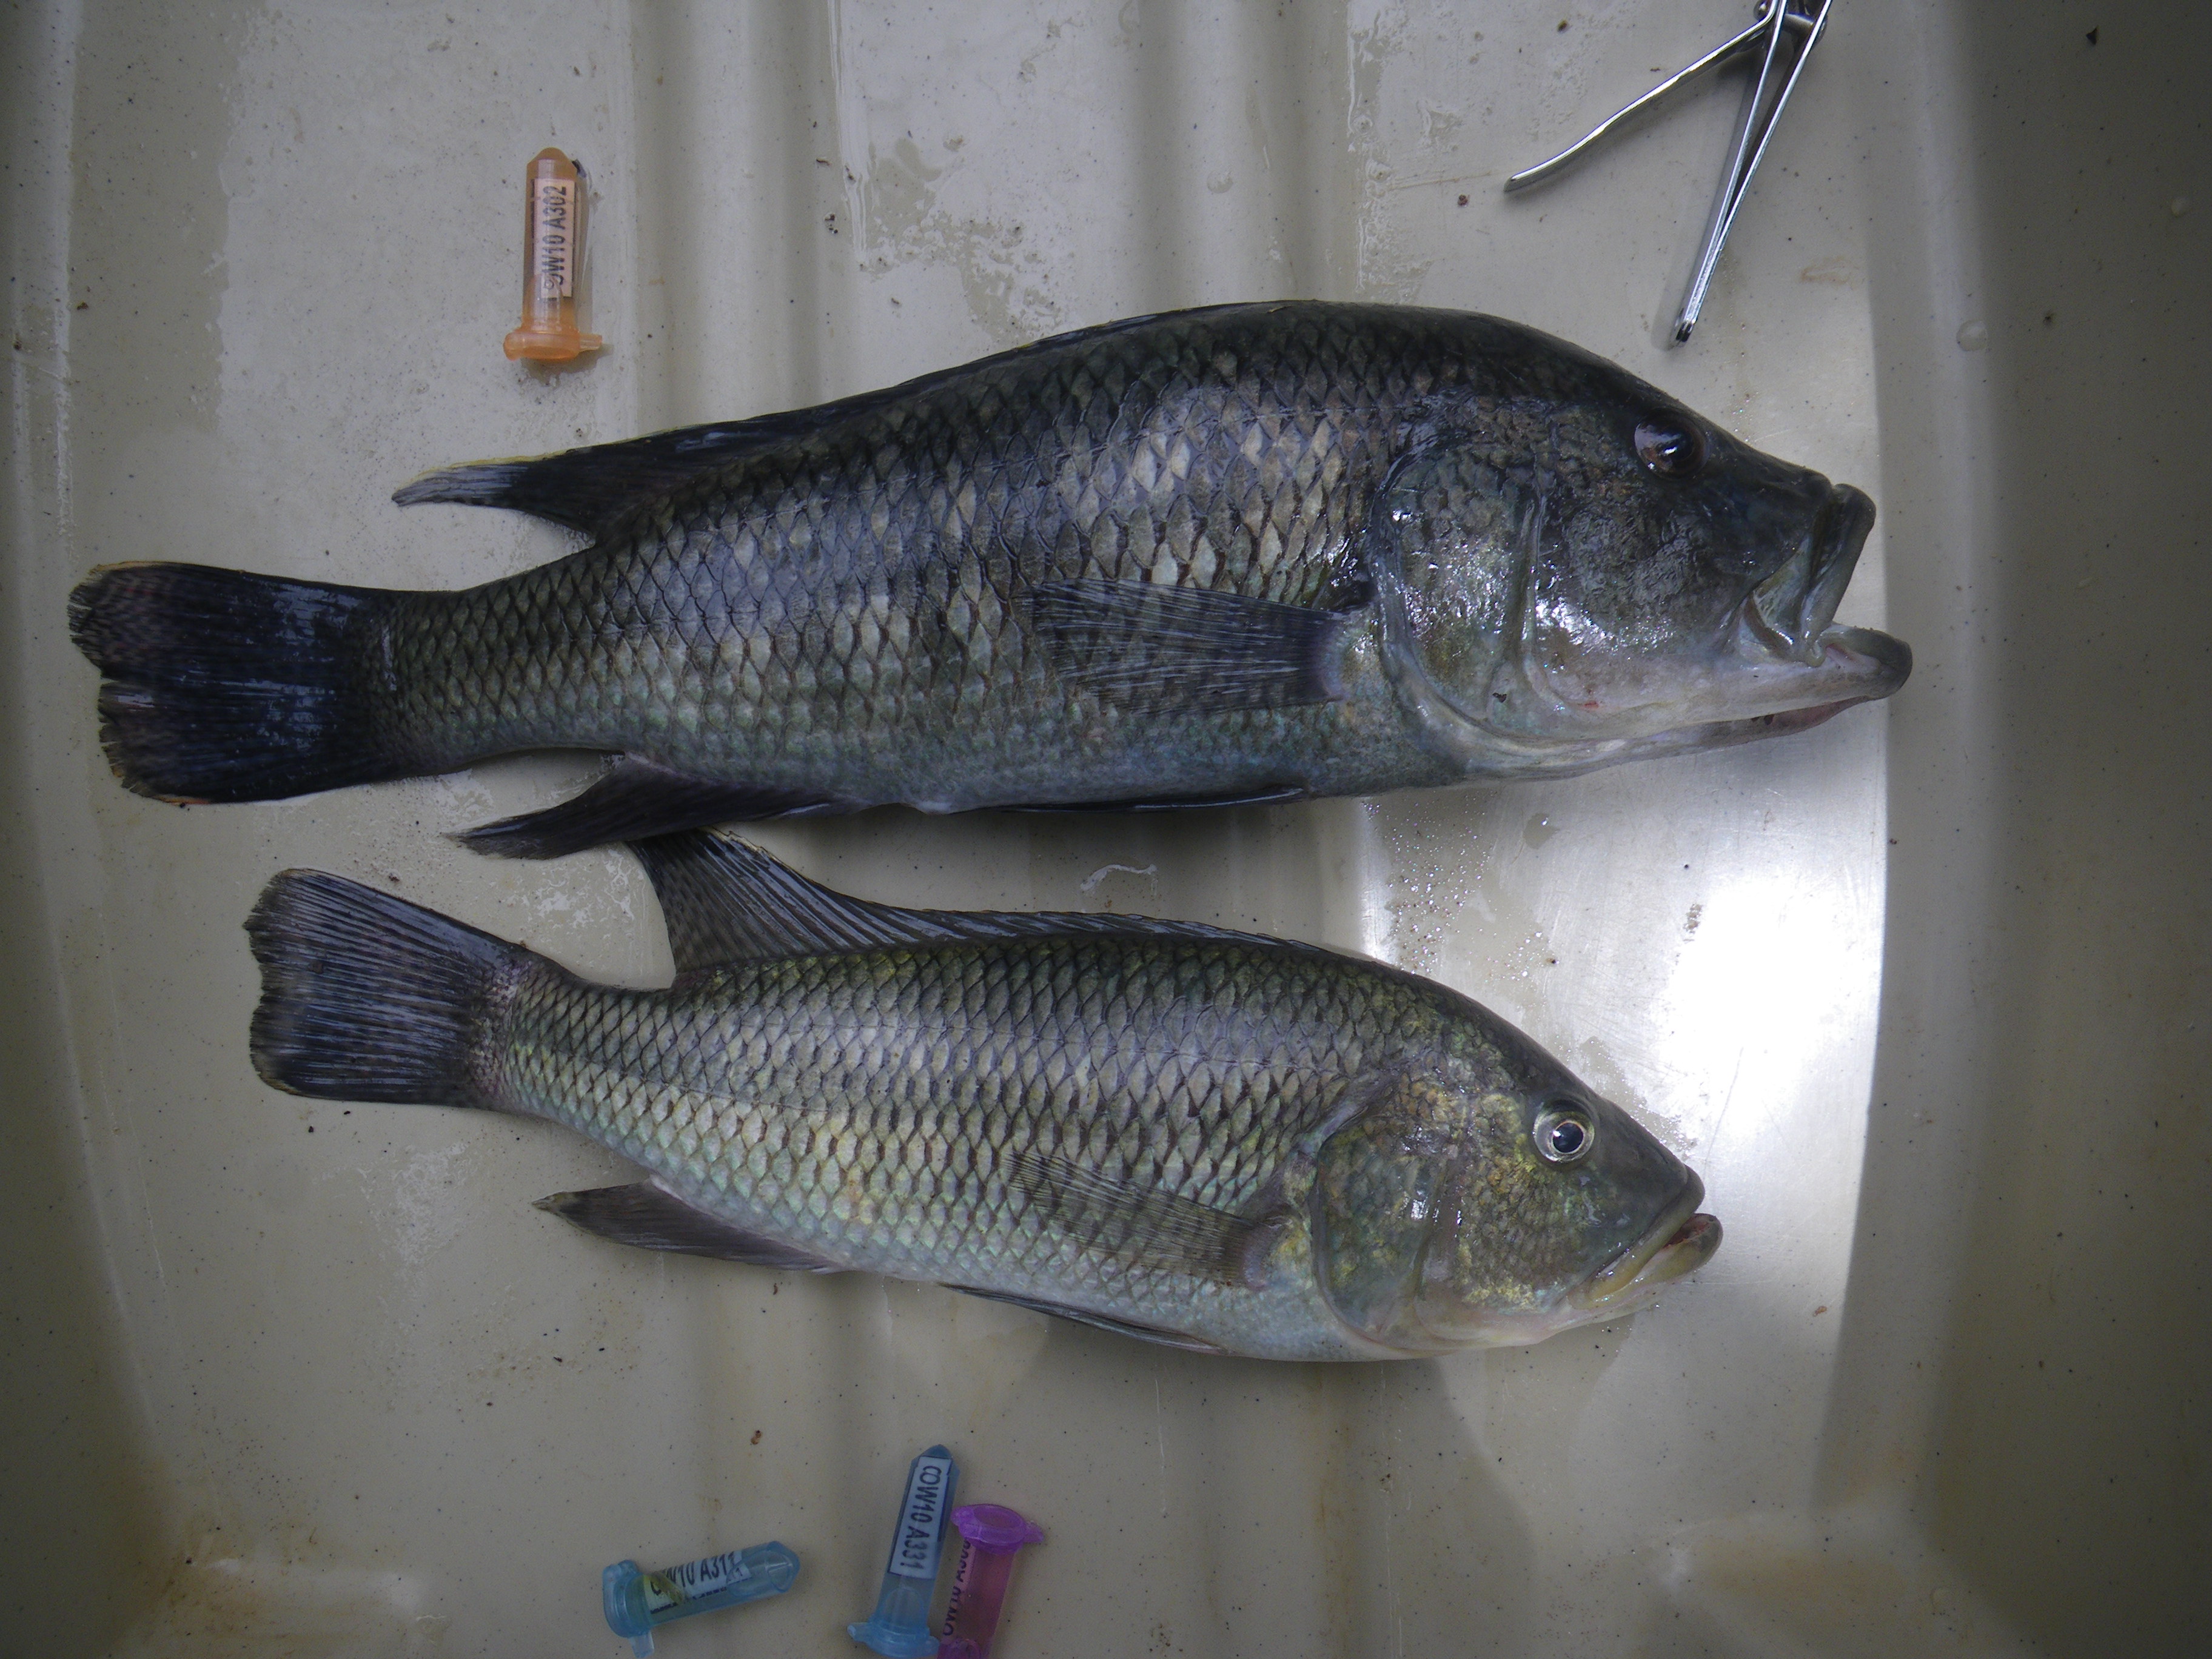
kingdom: Animalia
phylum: Chordata
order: Perciformes
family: Cichlidae
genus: Serranochromis
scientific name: Serranochromis robustus
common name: Yellow-belly bream
